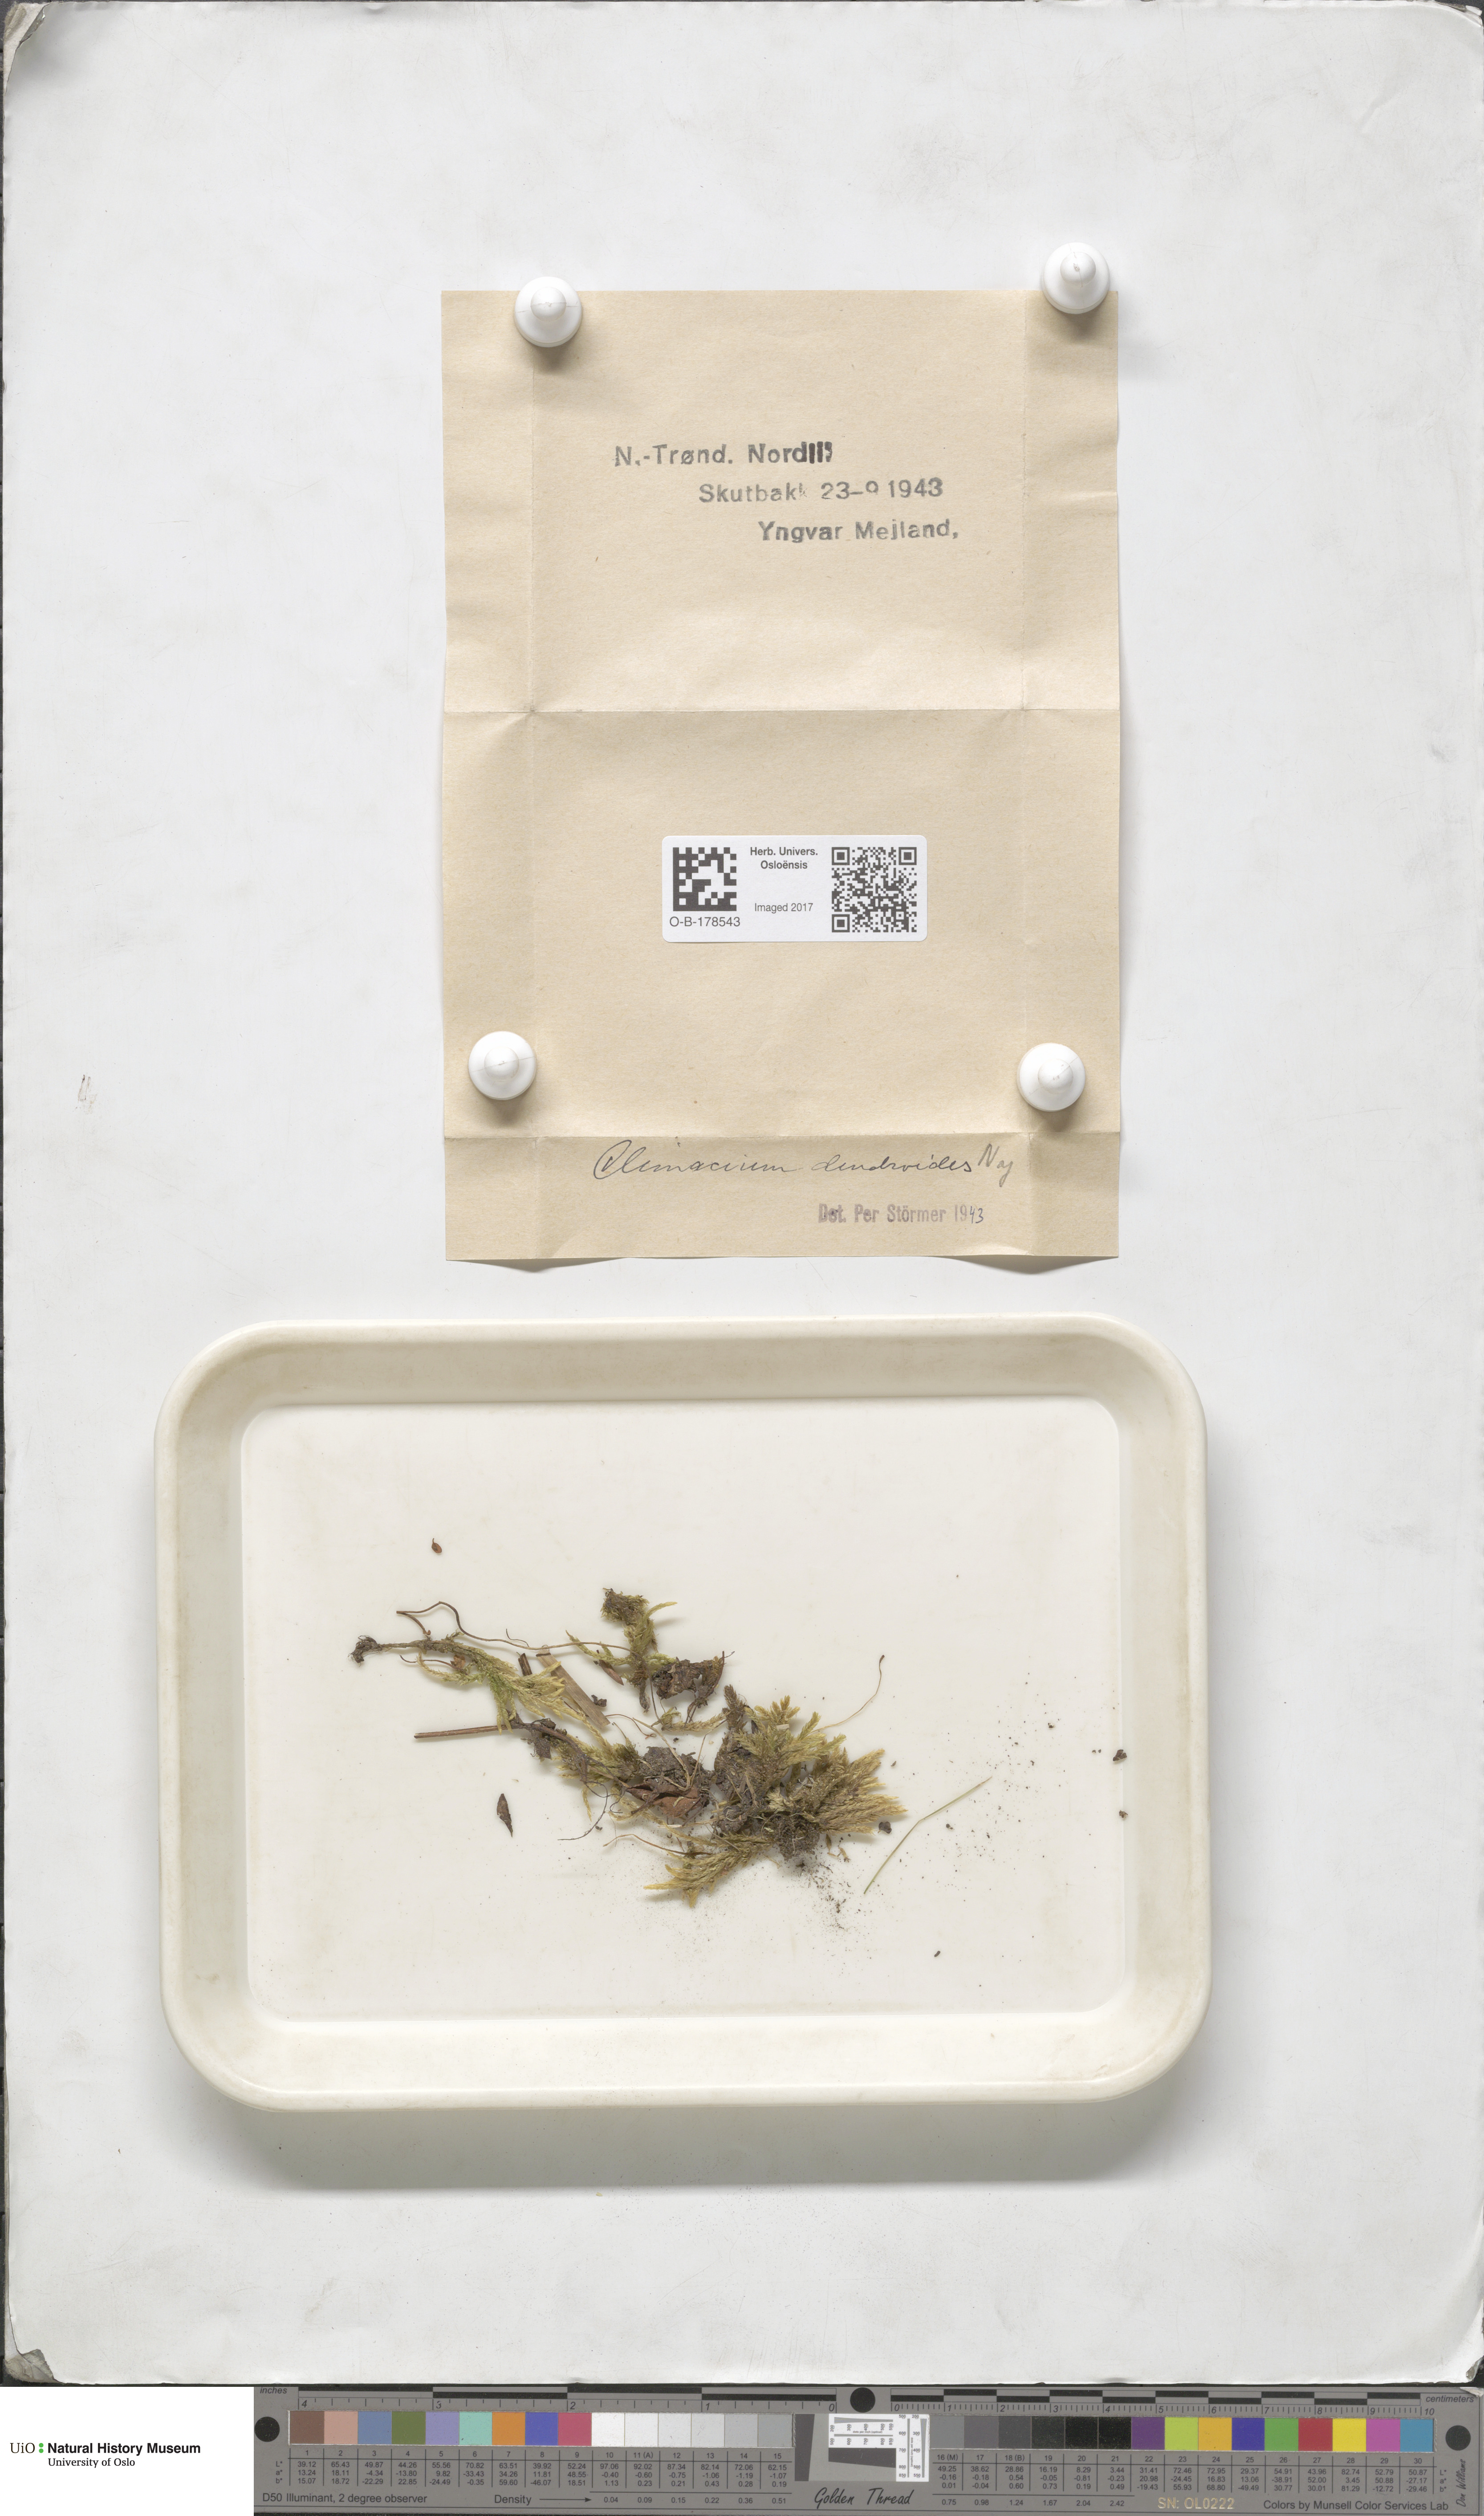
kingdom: Plantae
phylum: Bryophyta
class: Bryopsida
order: Hypnales
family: Climaciaceae
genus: Climacium
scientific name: Climacium dendroides
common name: Northern tree moss
